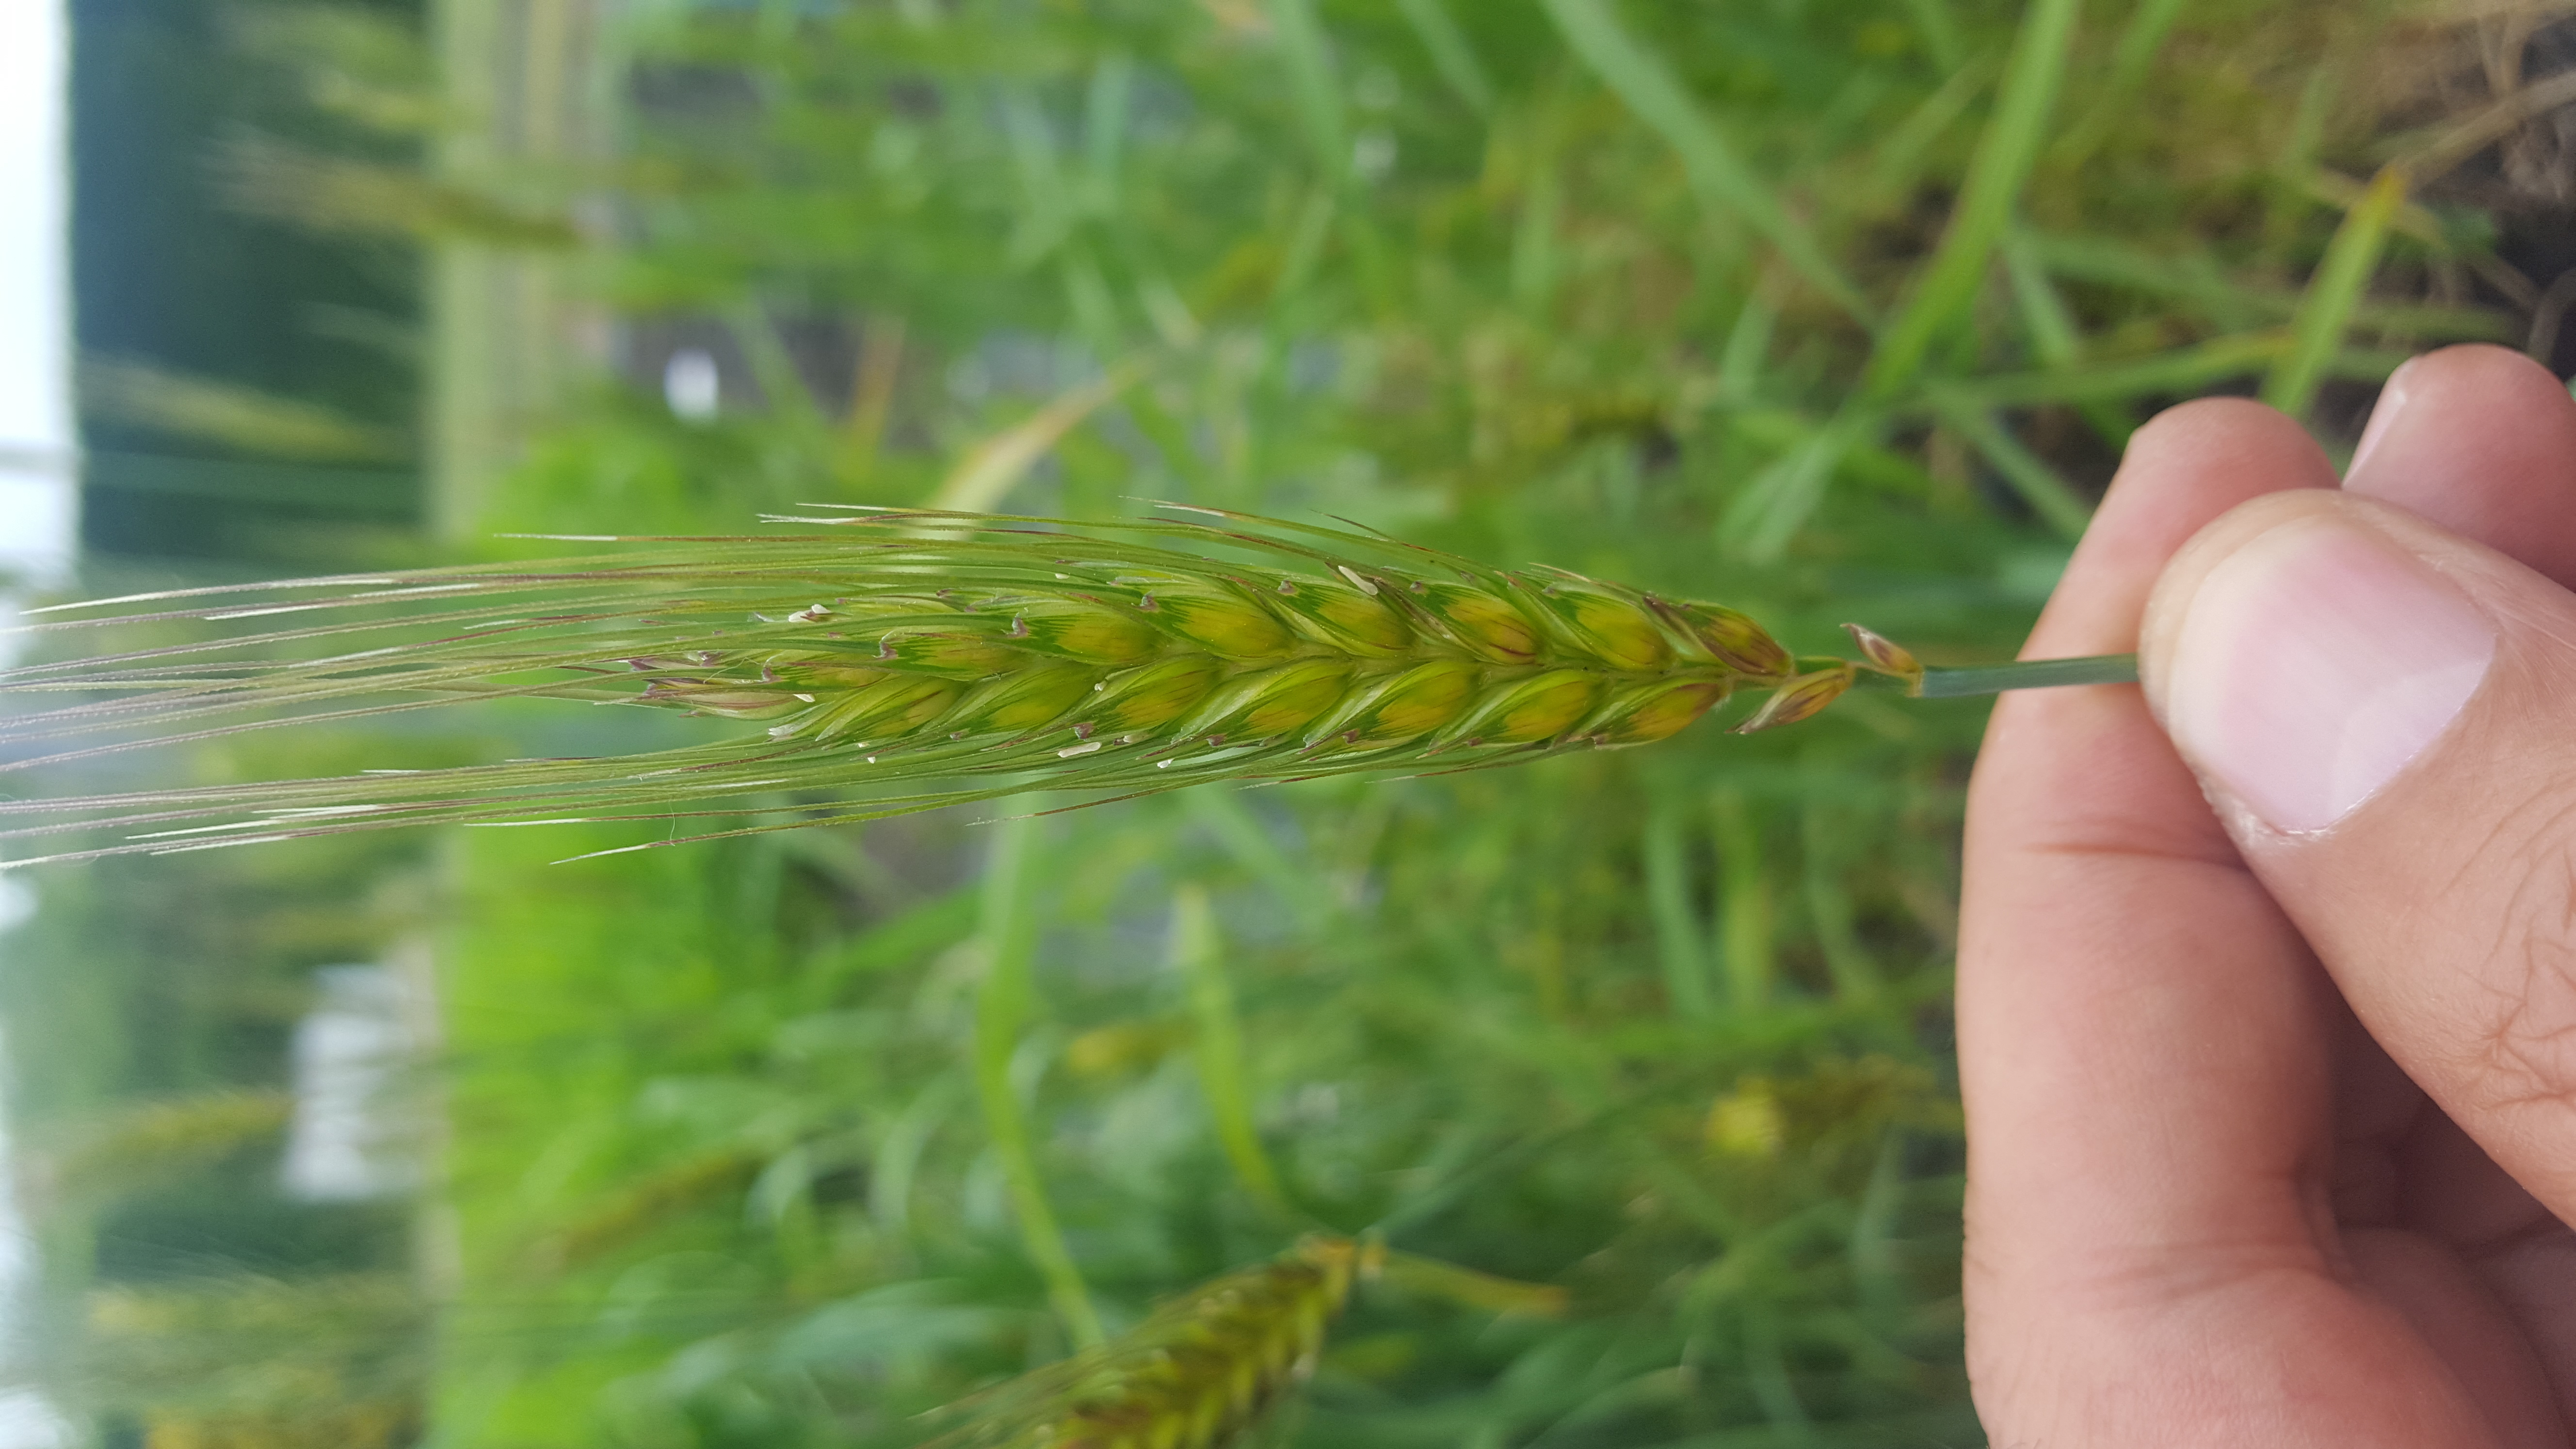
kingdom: Plantae
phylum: Tracheophyta
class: Liliopsida
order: Poales
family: Poaceae
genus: Triticum
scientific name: Triticum aestivum
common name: Common wheat
